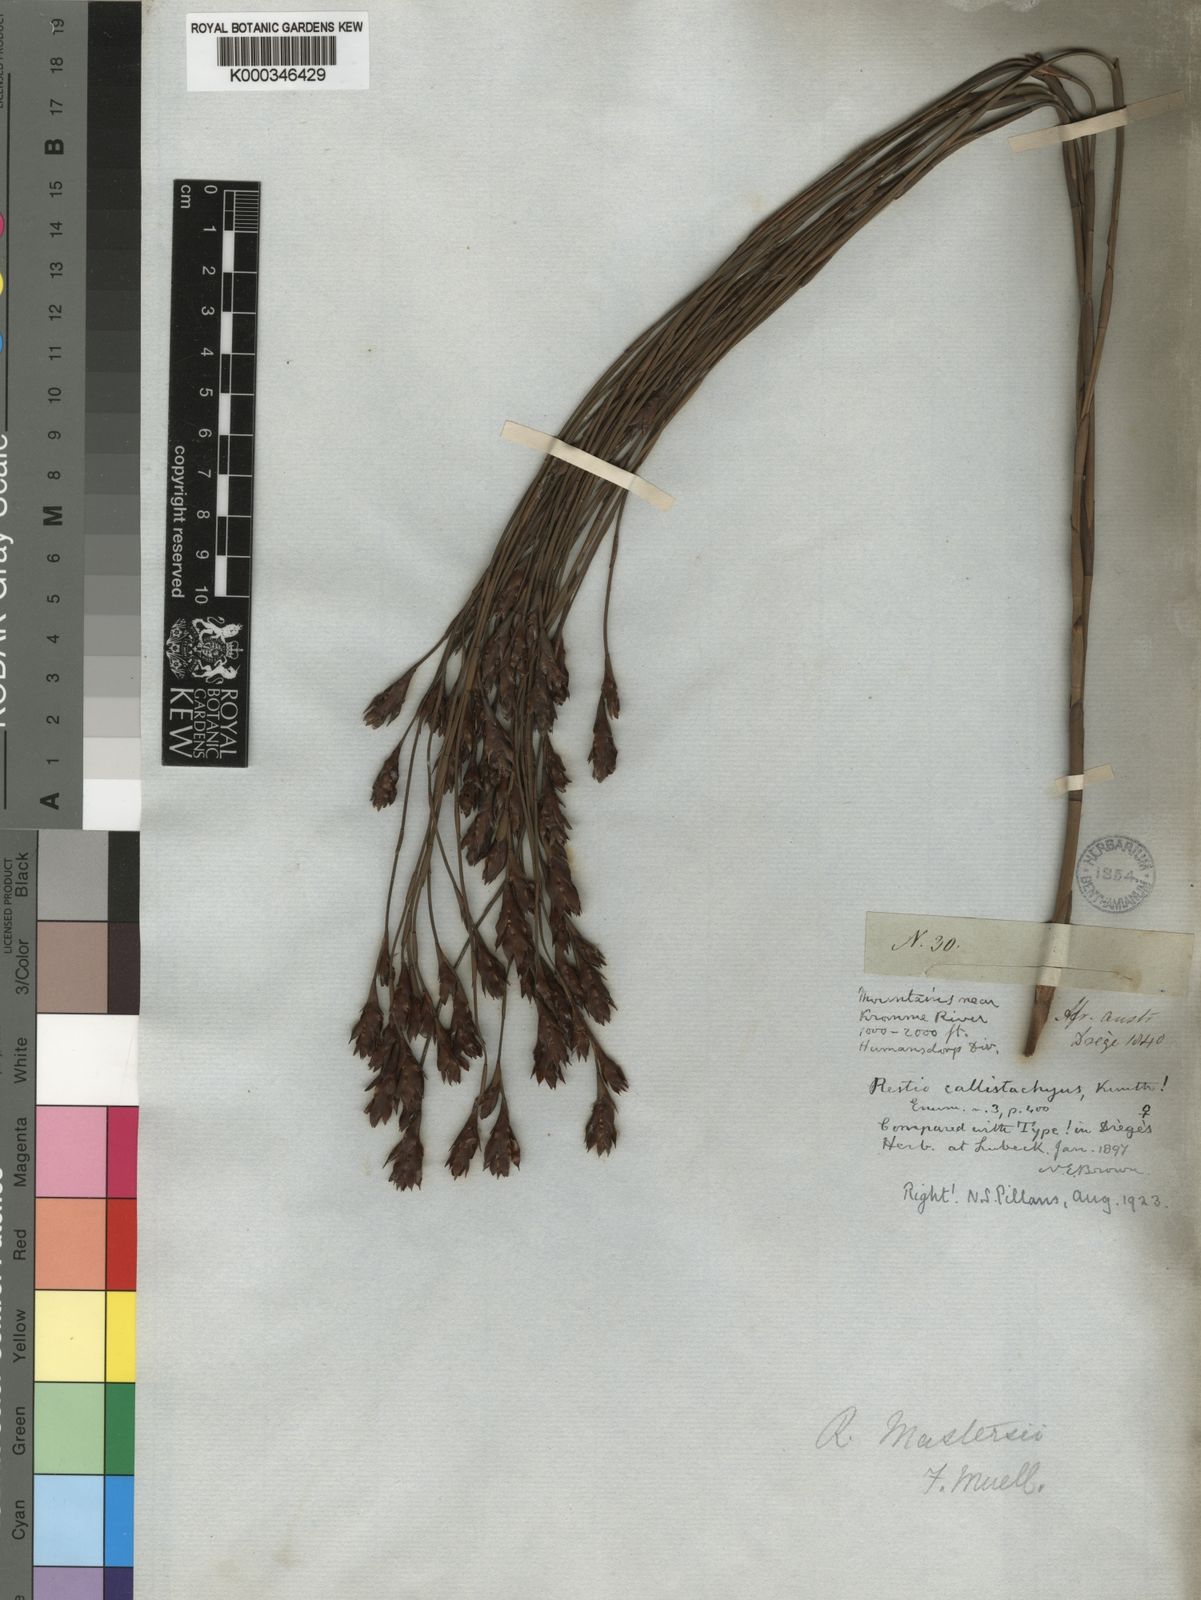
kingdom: Plantae
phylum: Tracheophyta
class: Liliopsida
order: Poales
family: Restionaceae
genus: Platycaulos
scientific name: Platycaulos callistachyus
